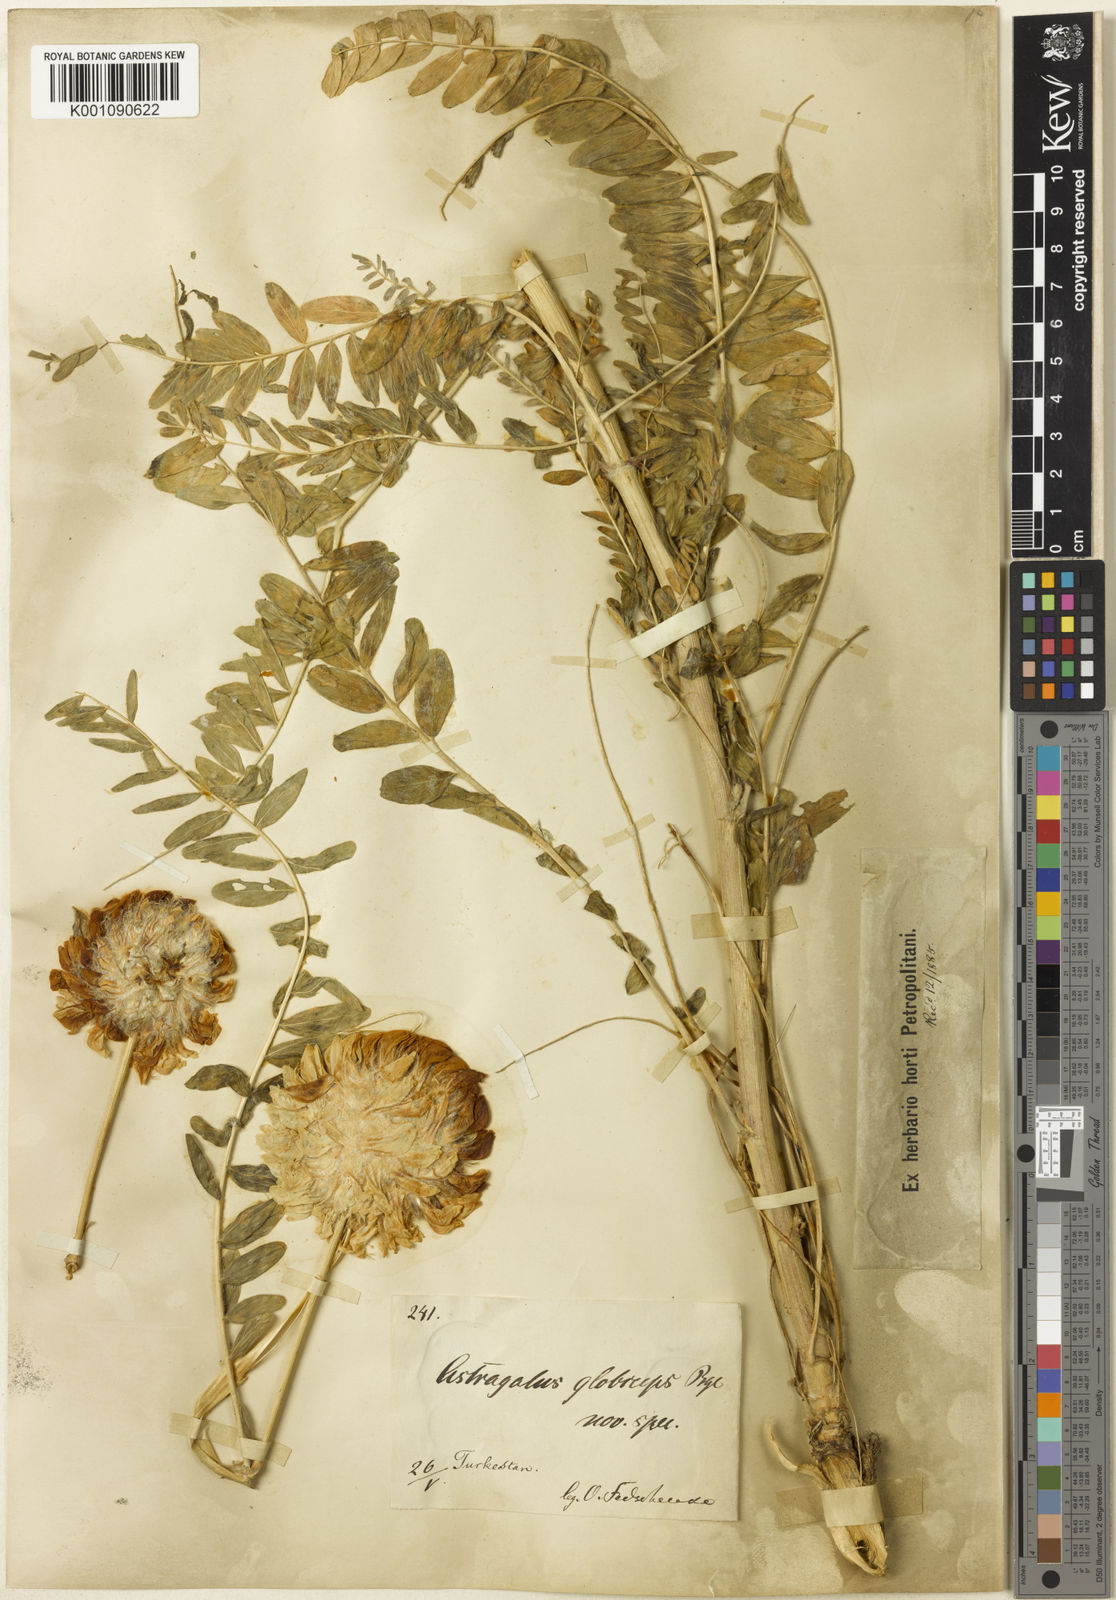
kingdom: Plantae
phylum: Tracheophyta
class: Magnoliopsida
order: Fabales
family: Fabaceae
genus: Astragalus
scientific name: Astragalus
